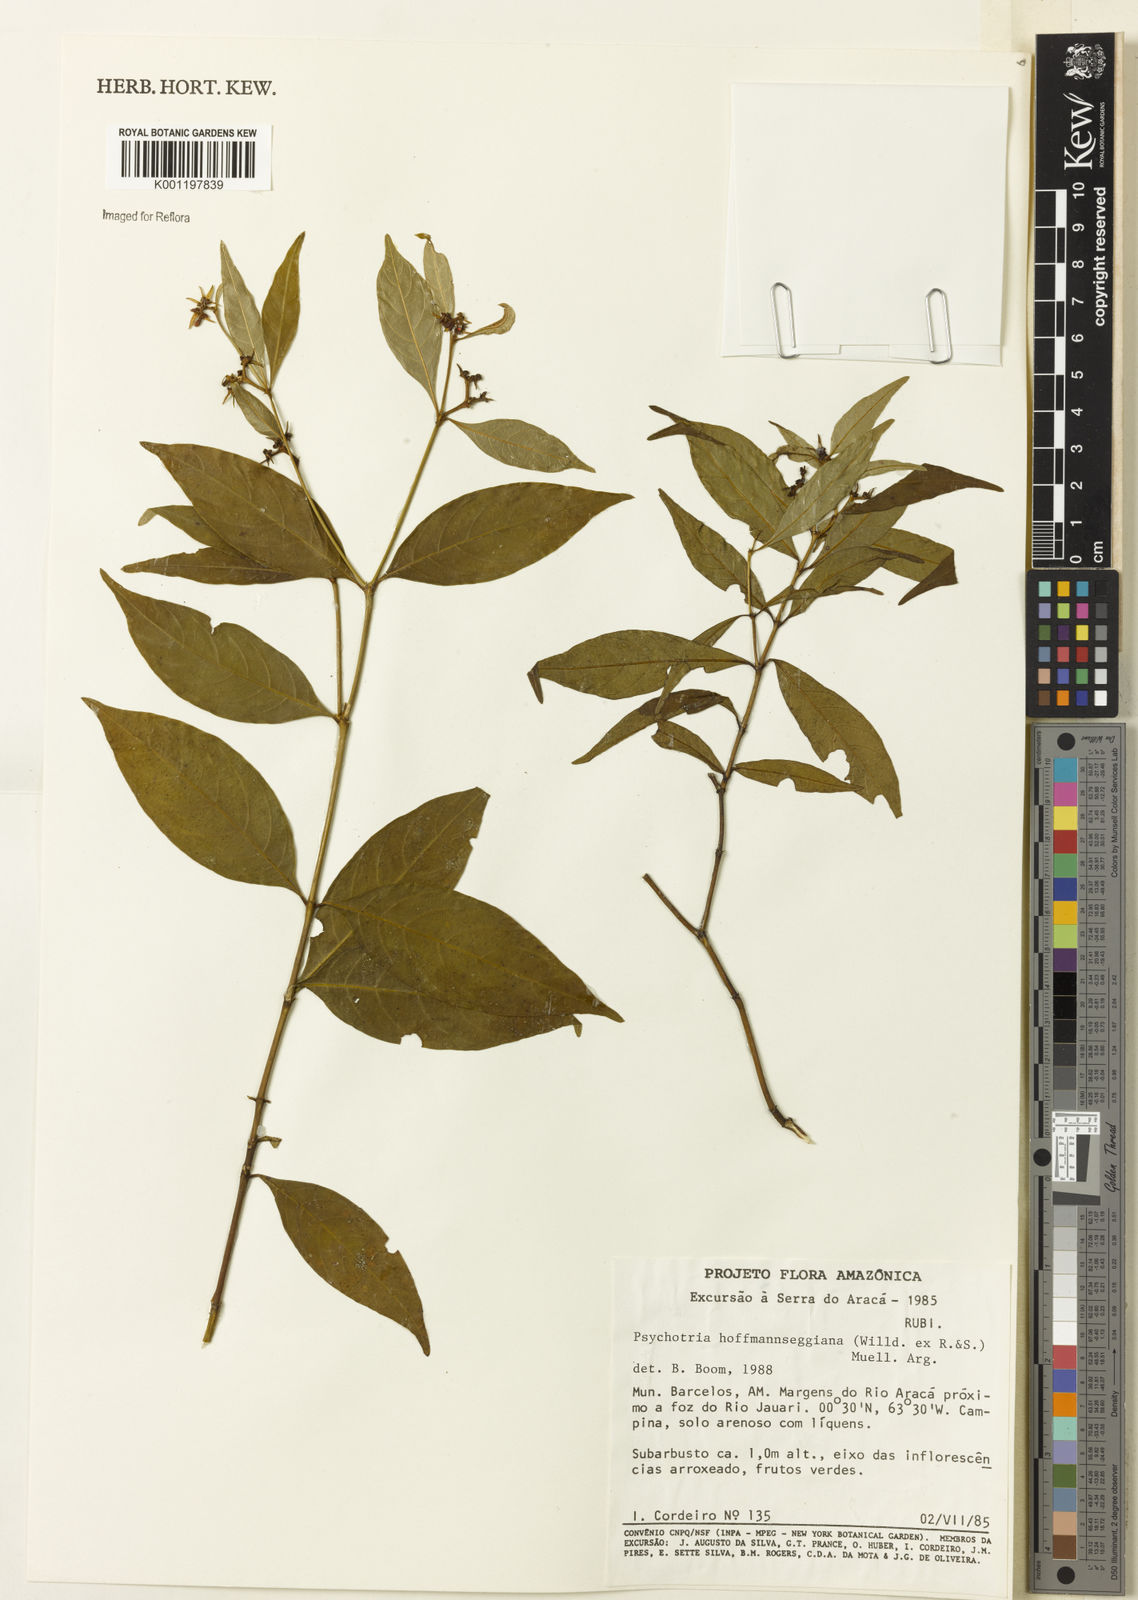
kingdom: Plantae
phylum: Tracheophyta
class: Magnoliopsida
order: Gentianales
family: Rubiaceae
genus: Psychotria
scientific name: Psychotria
